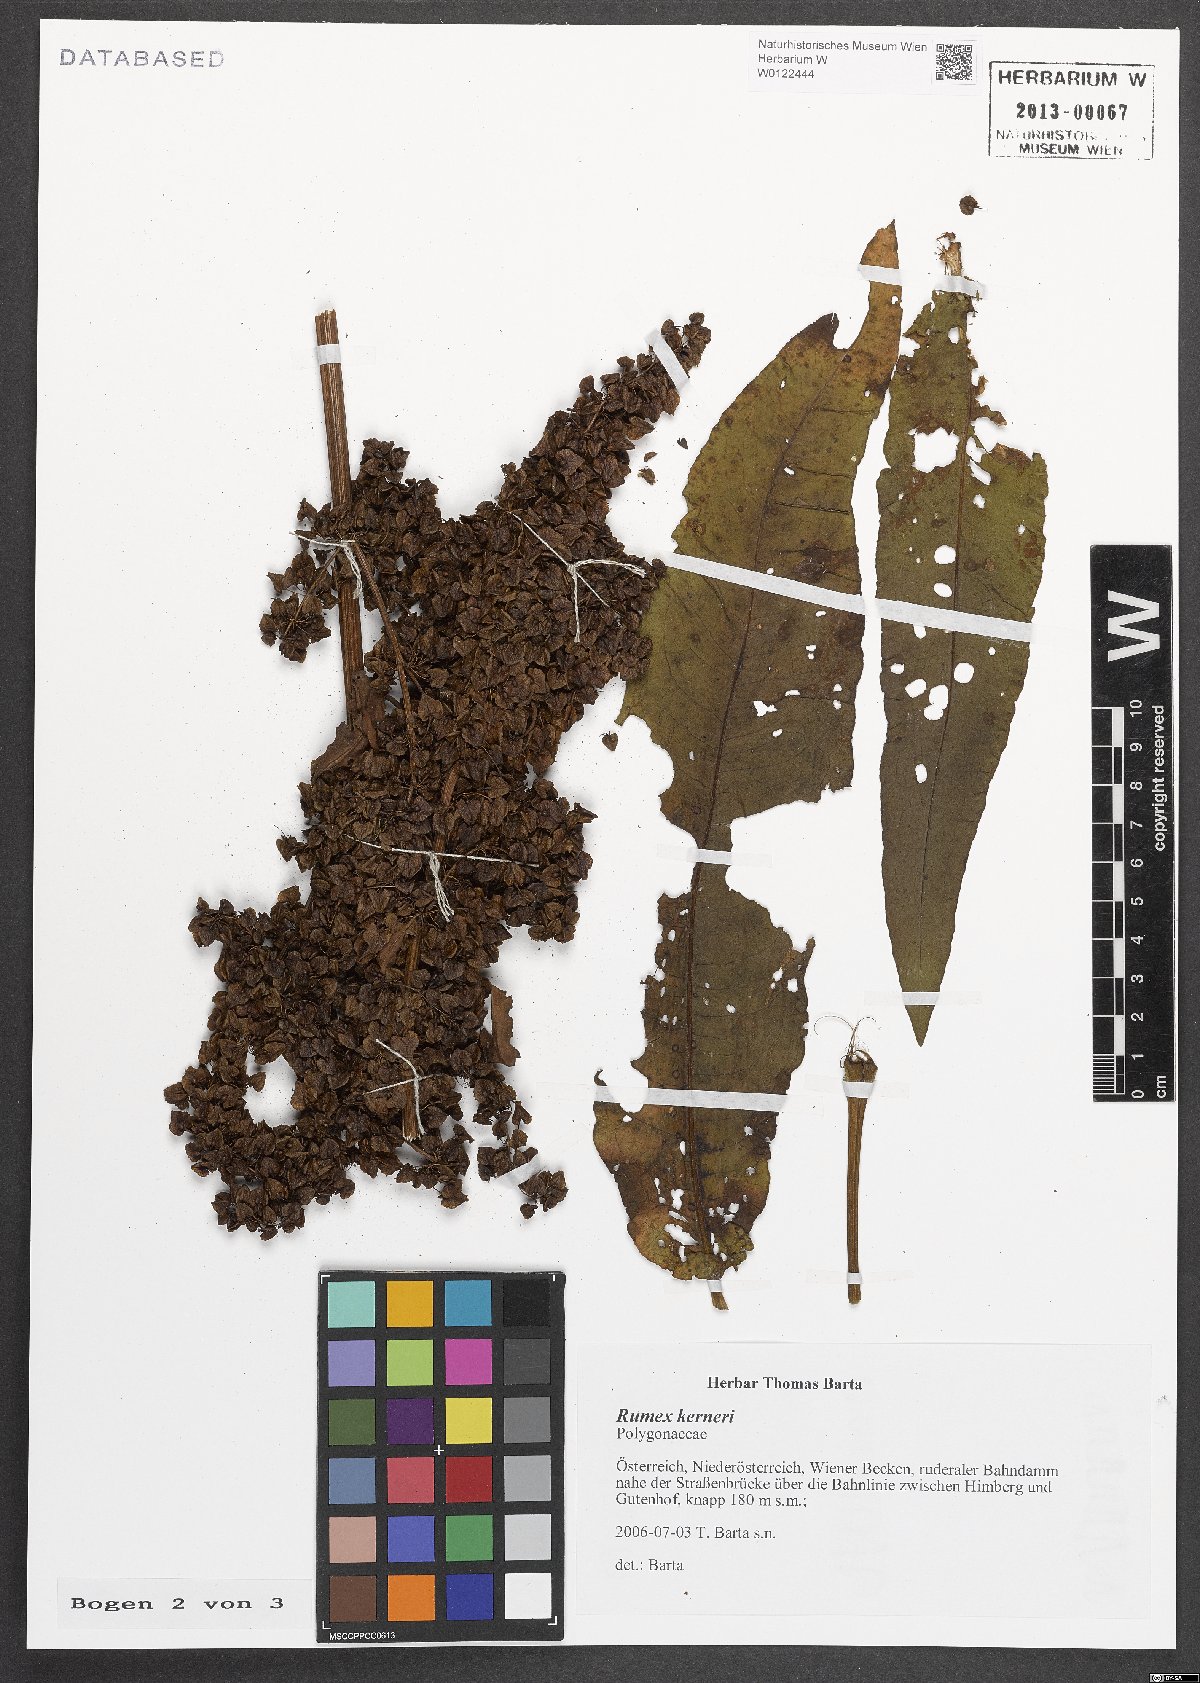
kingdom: Plantae
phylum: Tracheophyta
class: Magnoliopsida
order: Caryophyllales
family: Polygonaceae
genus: Rumex
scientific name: Rumex kerneri
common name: Kerner's dock
